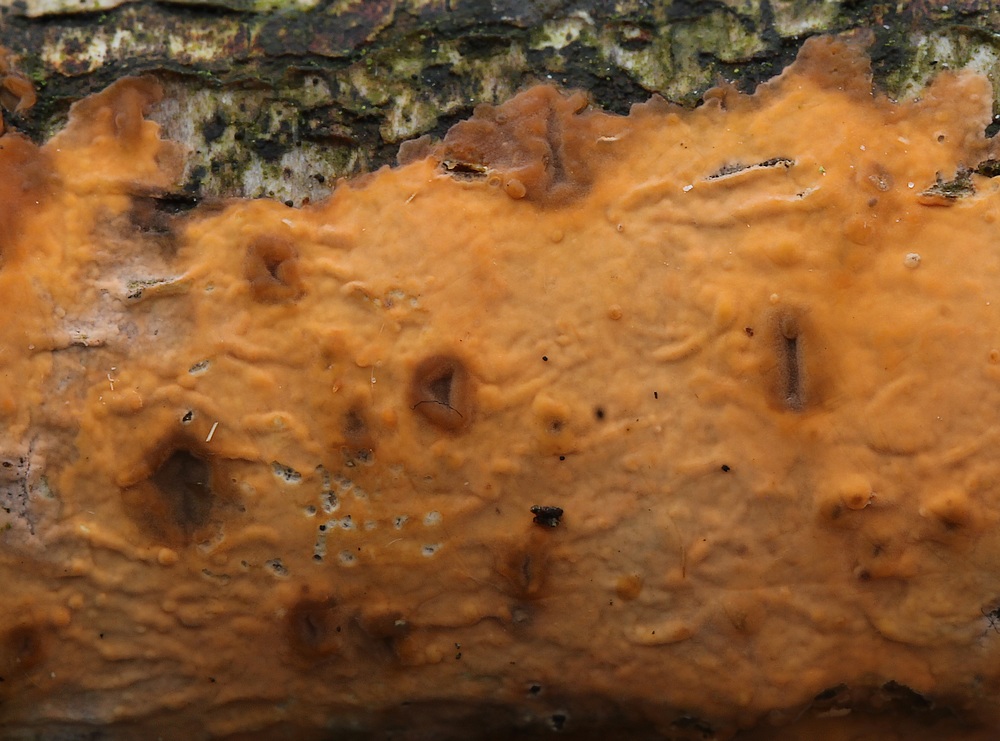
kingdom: Fungi
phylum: Basidiomycota
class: Agaricomycetes
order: Russulales
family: Peniophoraceae
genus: Peniophora
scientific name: Peniophora incarnata
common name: laksefarvet voksskind
